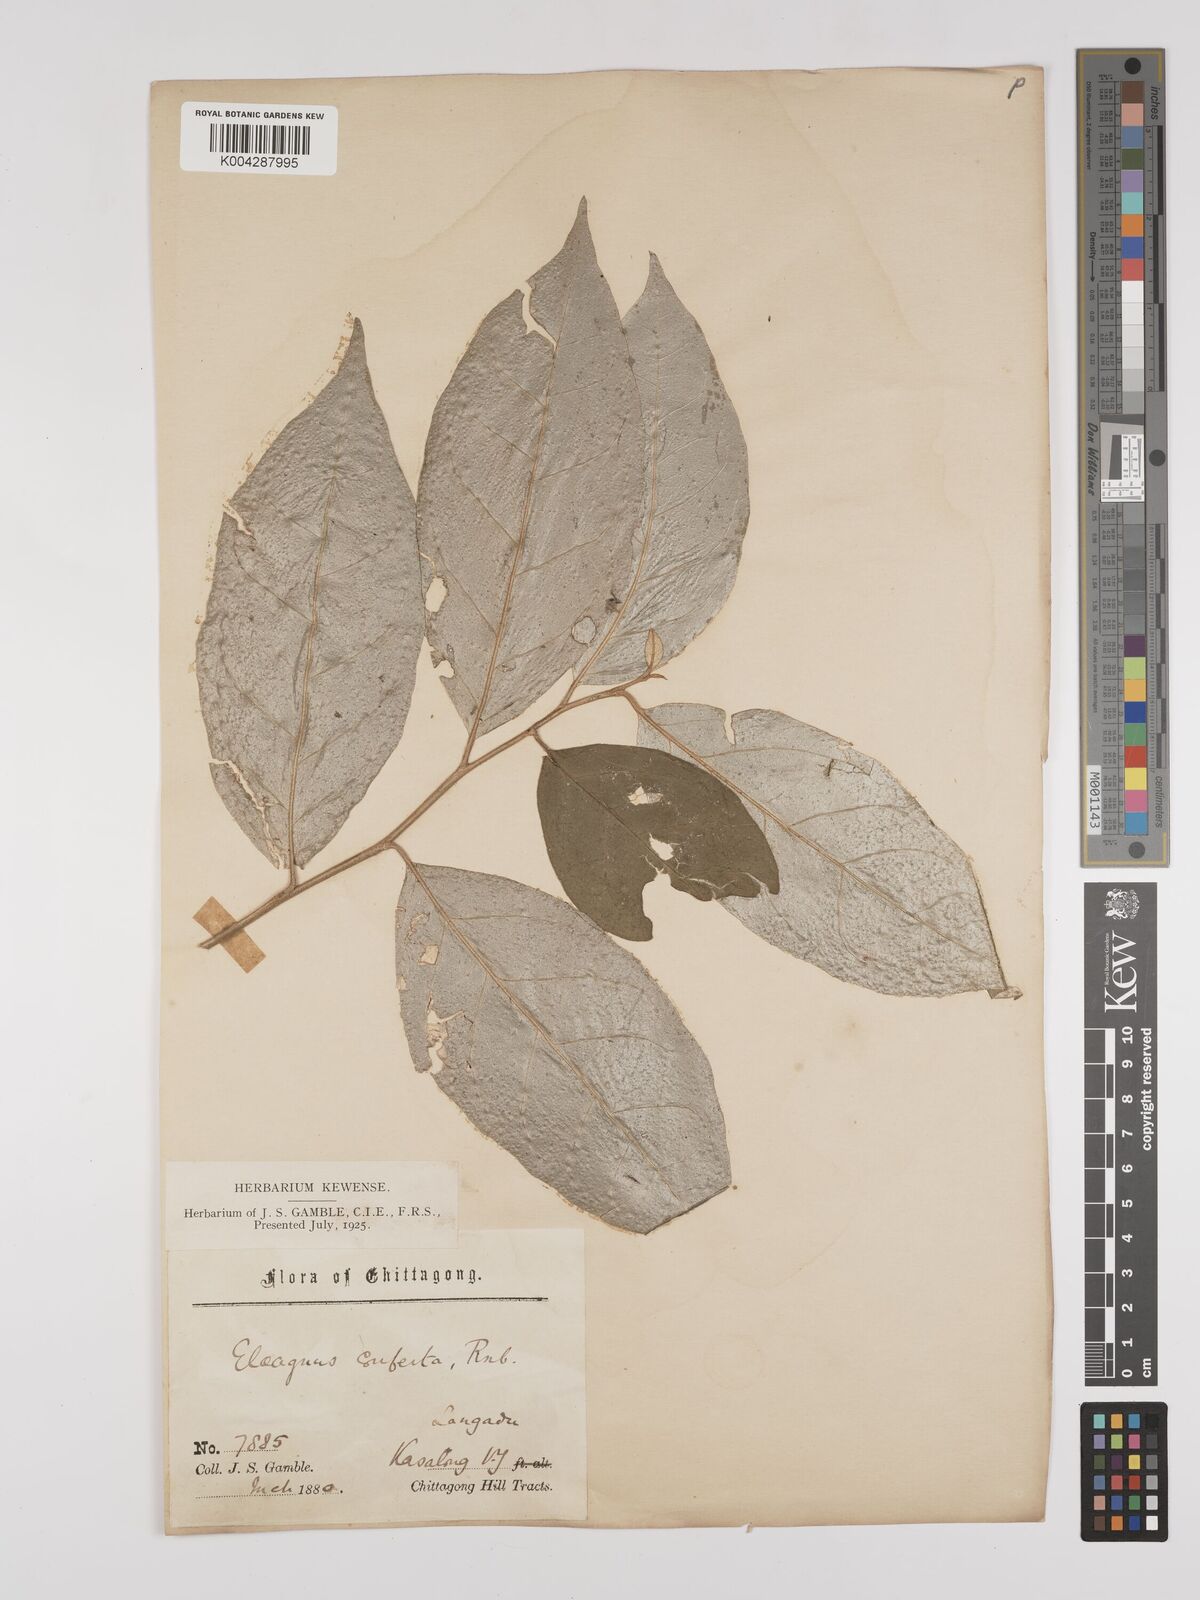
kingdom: Plantae
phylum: Tracheophyta
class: Magnoliopsida
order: Rosales
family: Elaeagnaceae
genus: Elaeagnus
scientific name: Elaeagnus latifolia
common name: Oleaster
